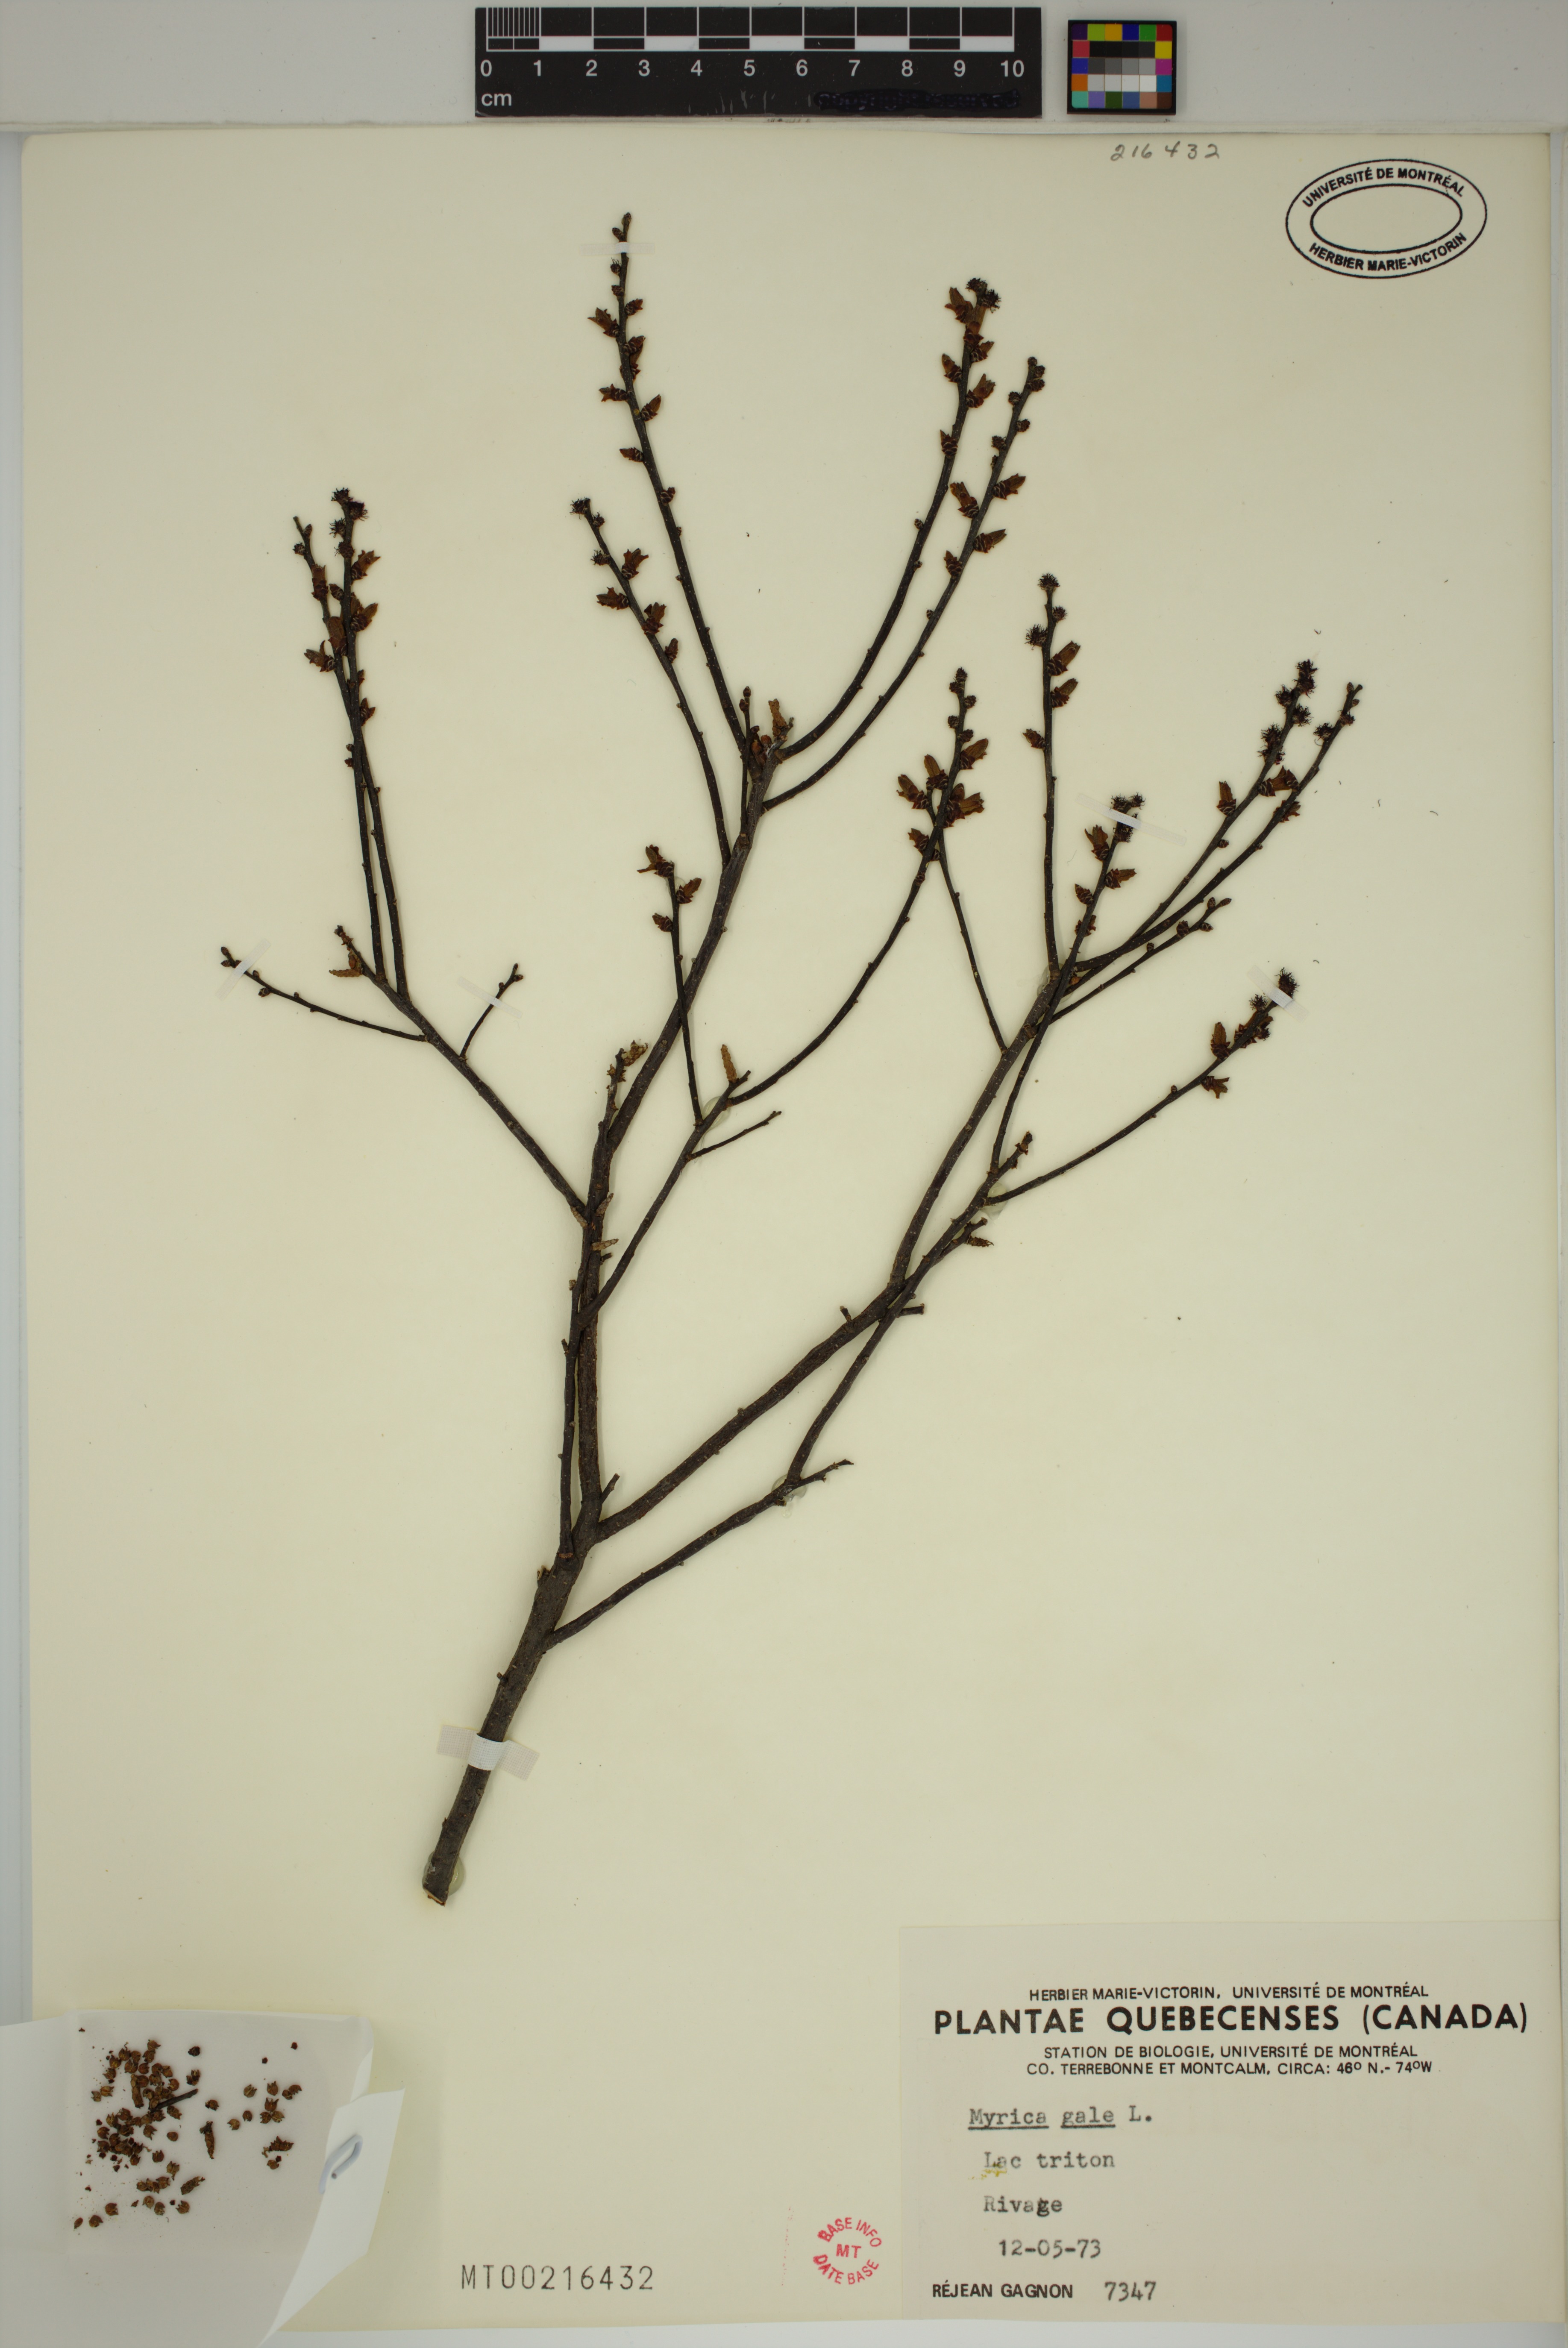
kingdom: Plantae
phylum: Tracheophyta
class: Magnoliopsida
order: Fagales
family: Myricaceae
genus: Myrica
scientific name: Myrica gale
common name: Sweet gale
